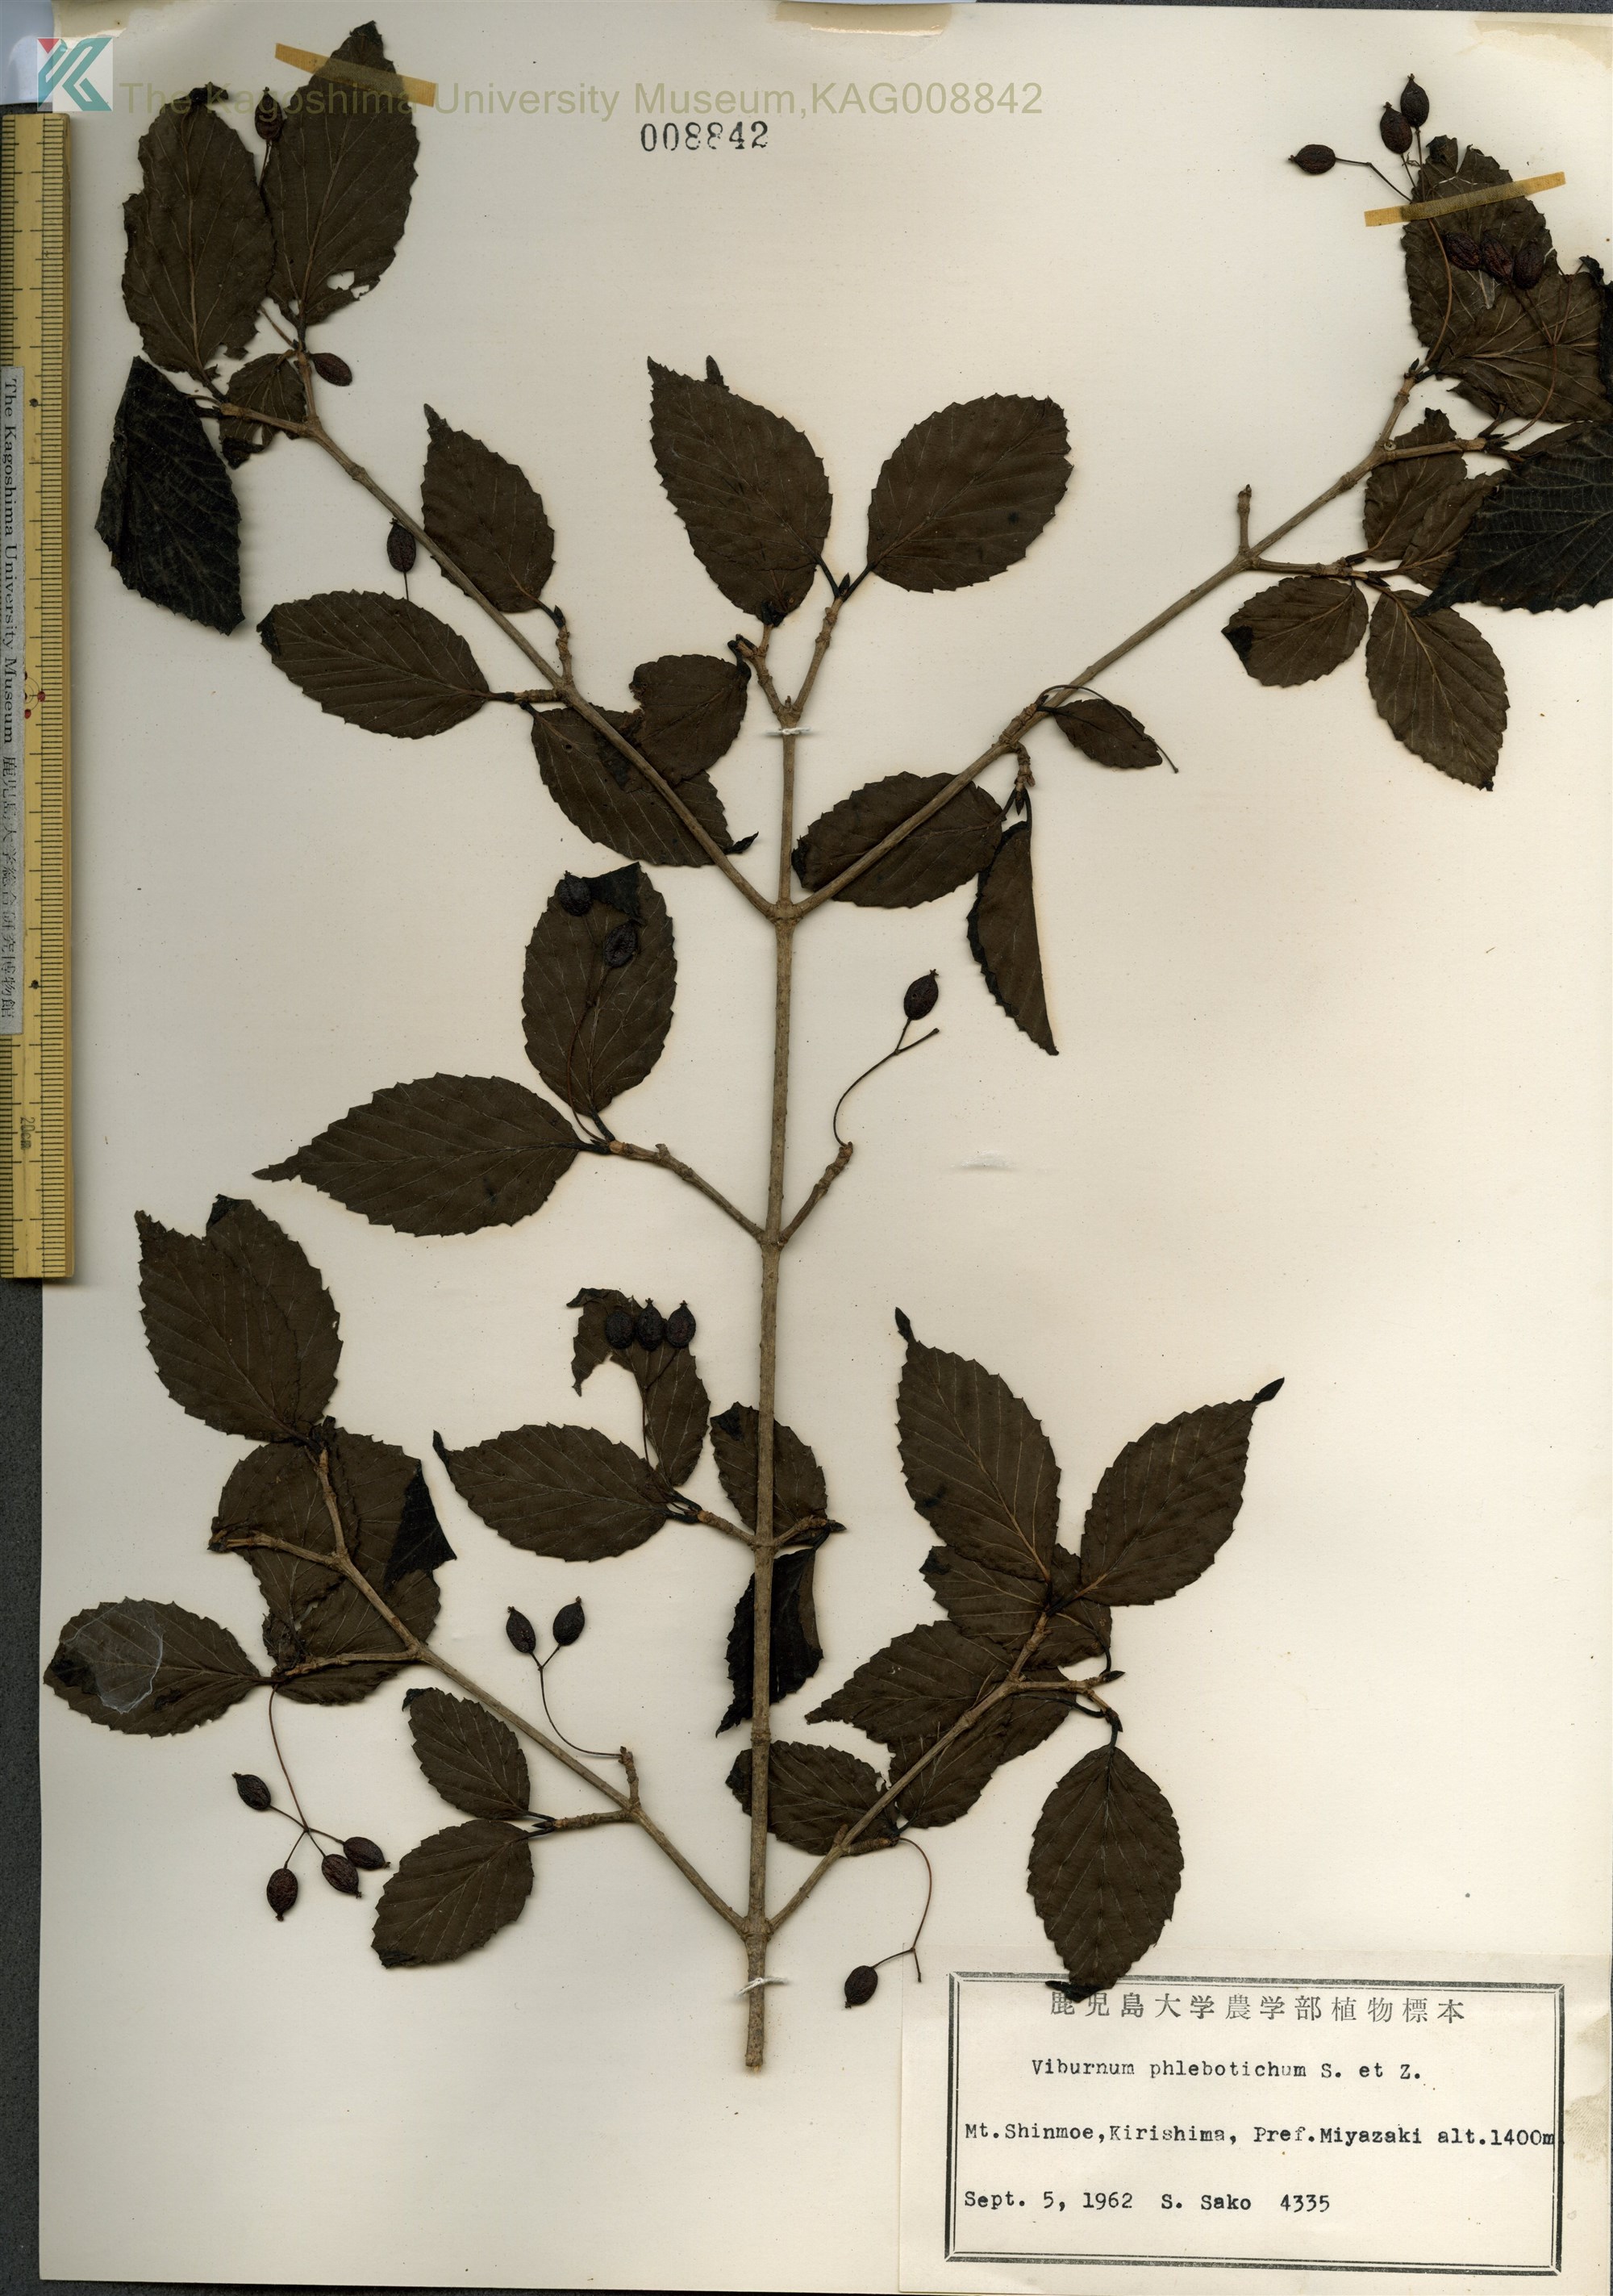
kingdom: Plantae
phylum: Tracheophyta
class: Magnoliopsida
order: Dipsacales
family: Viburnaceae
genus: Viburnum
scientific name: Viburnum phlebotrichum
